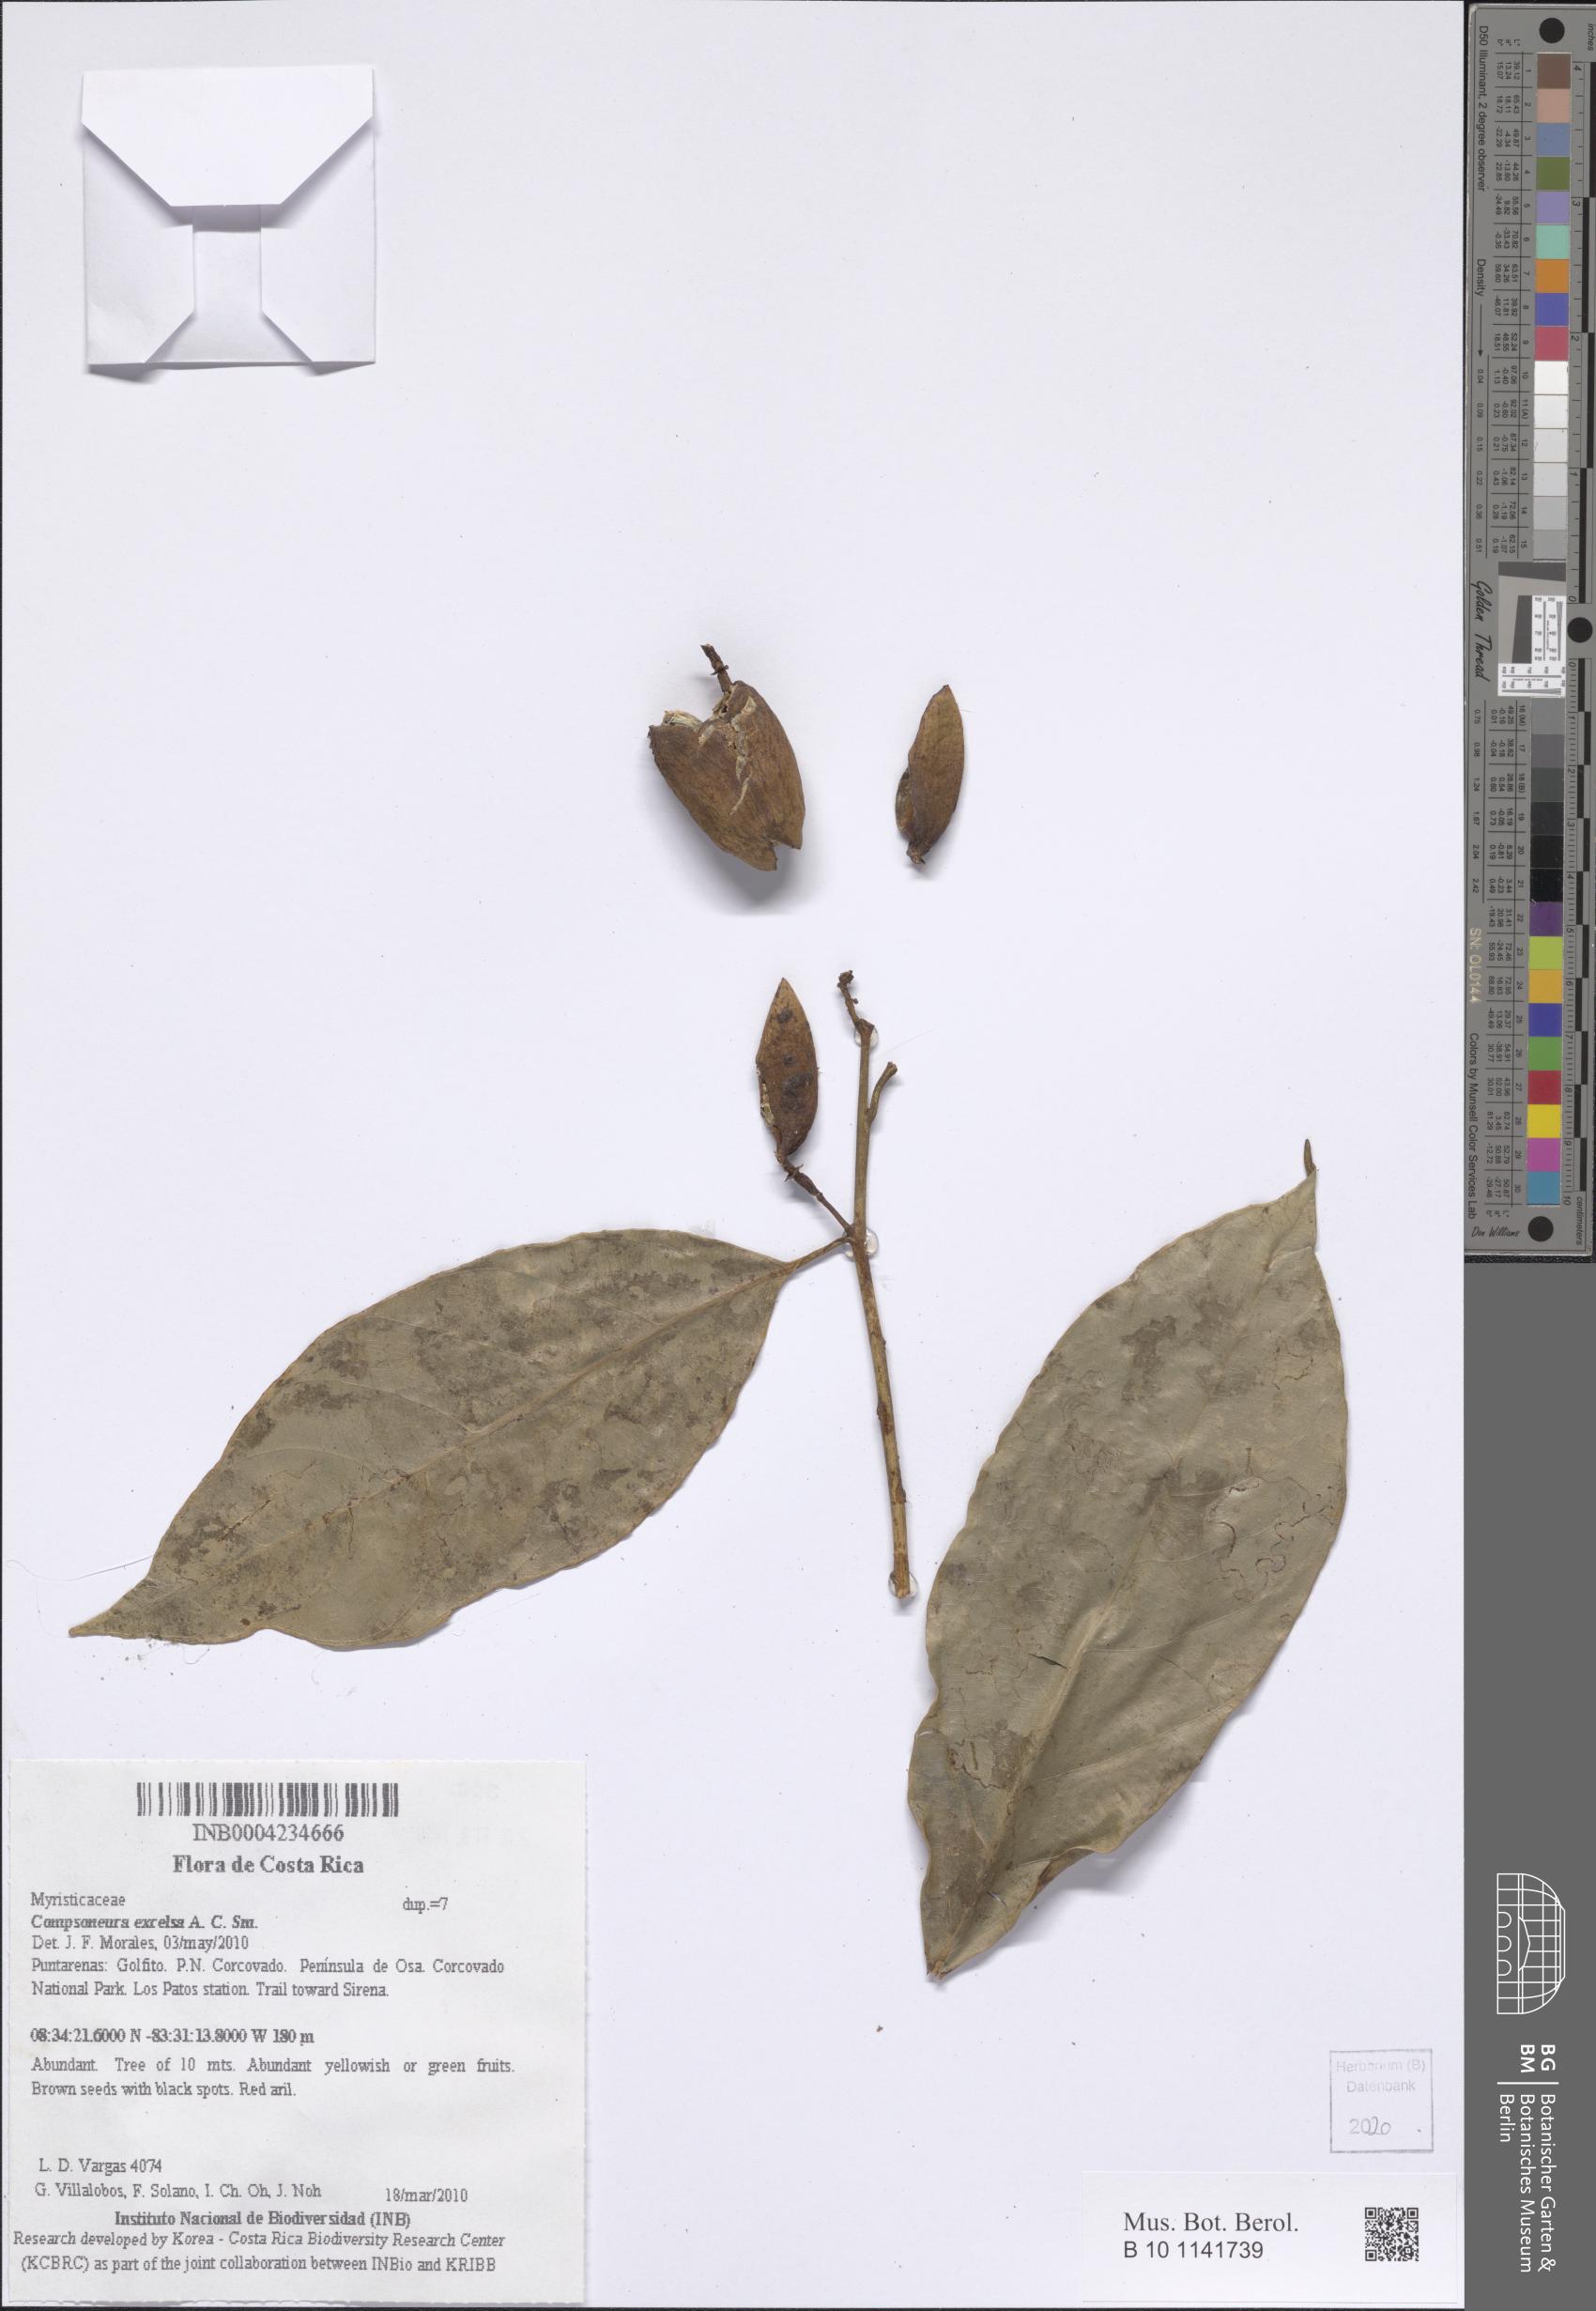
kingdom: Plantae
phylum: Tracheophyta
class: Magnoliopsida
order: Magnoliales
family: Myristicaceae
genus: Compsoneura
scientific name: Compsoneura excelsa
